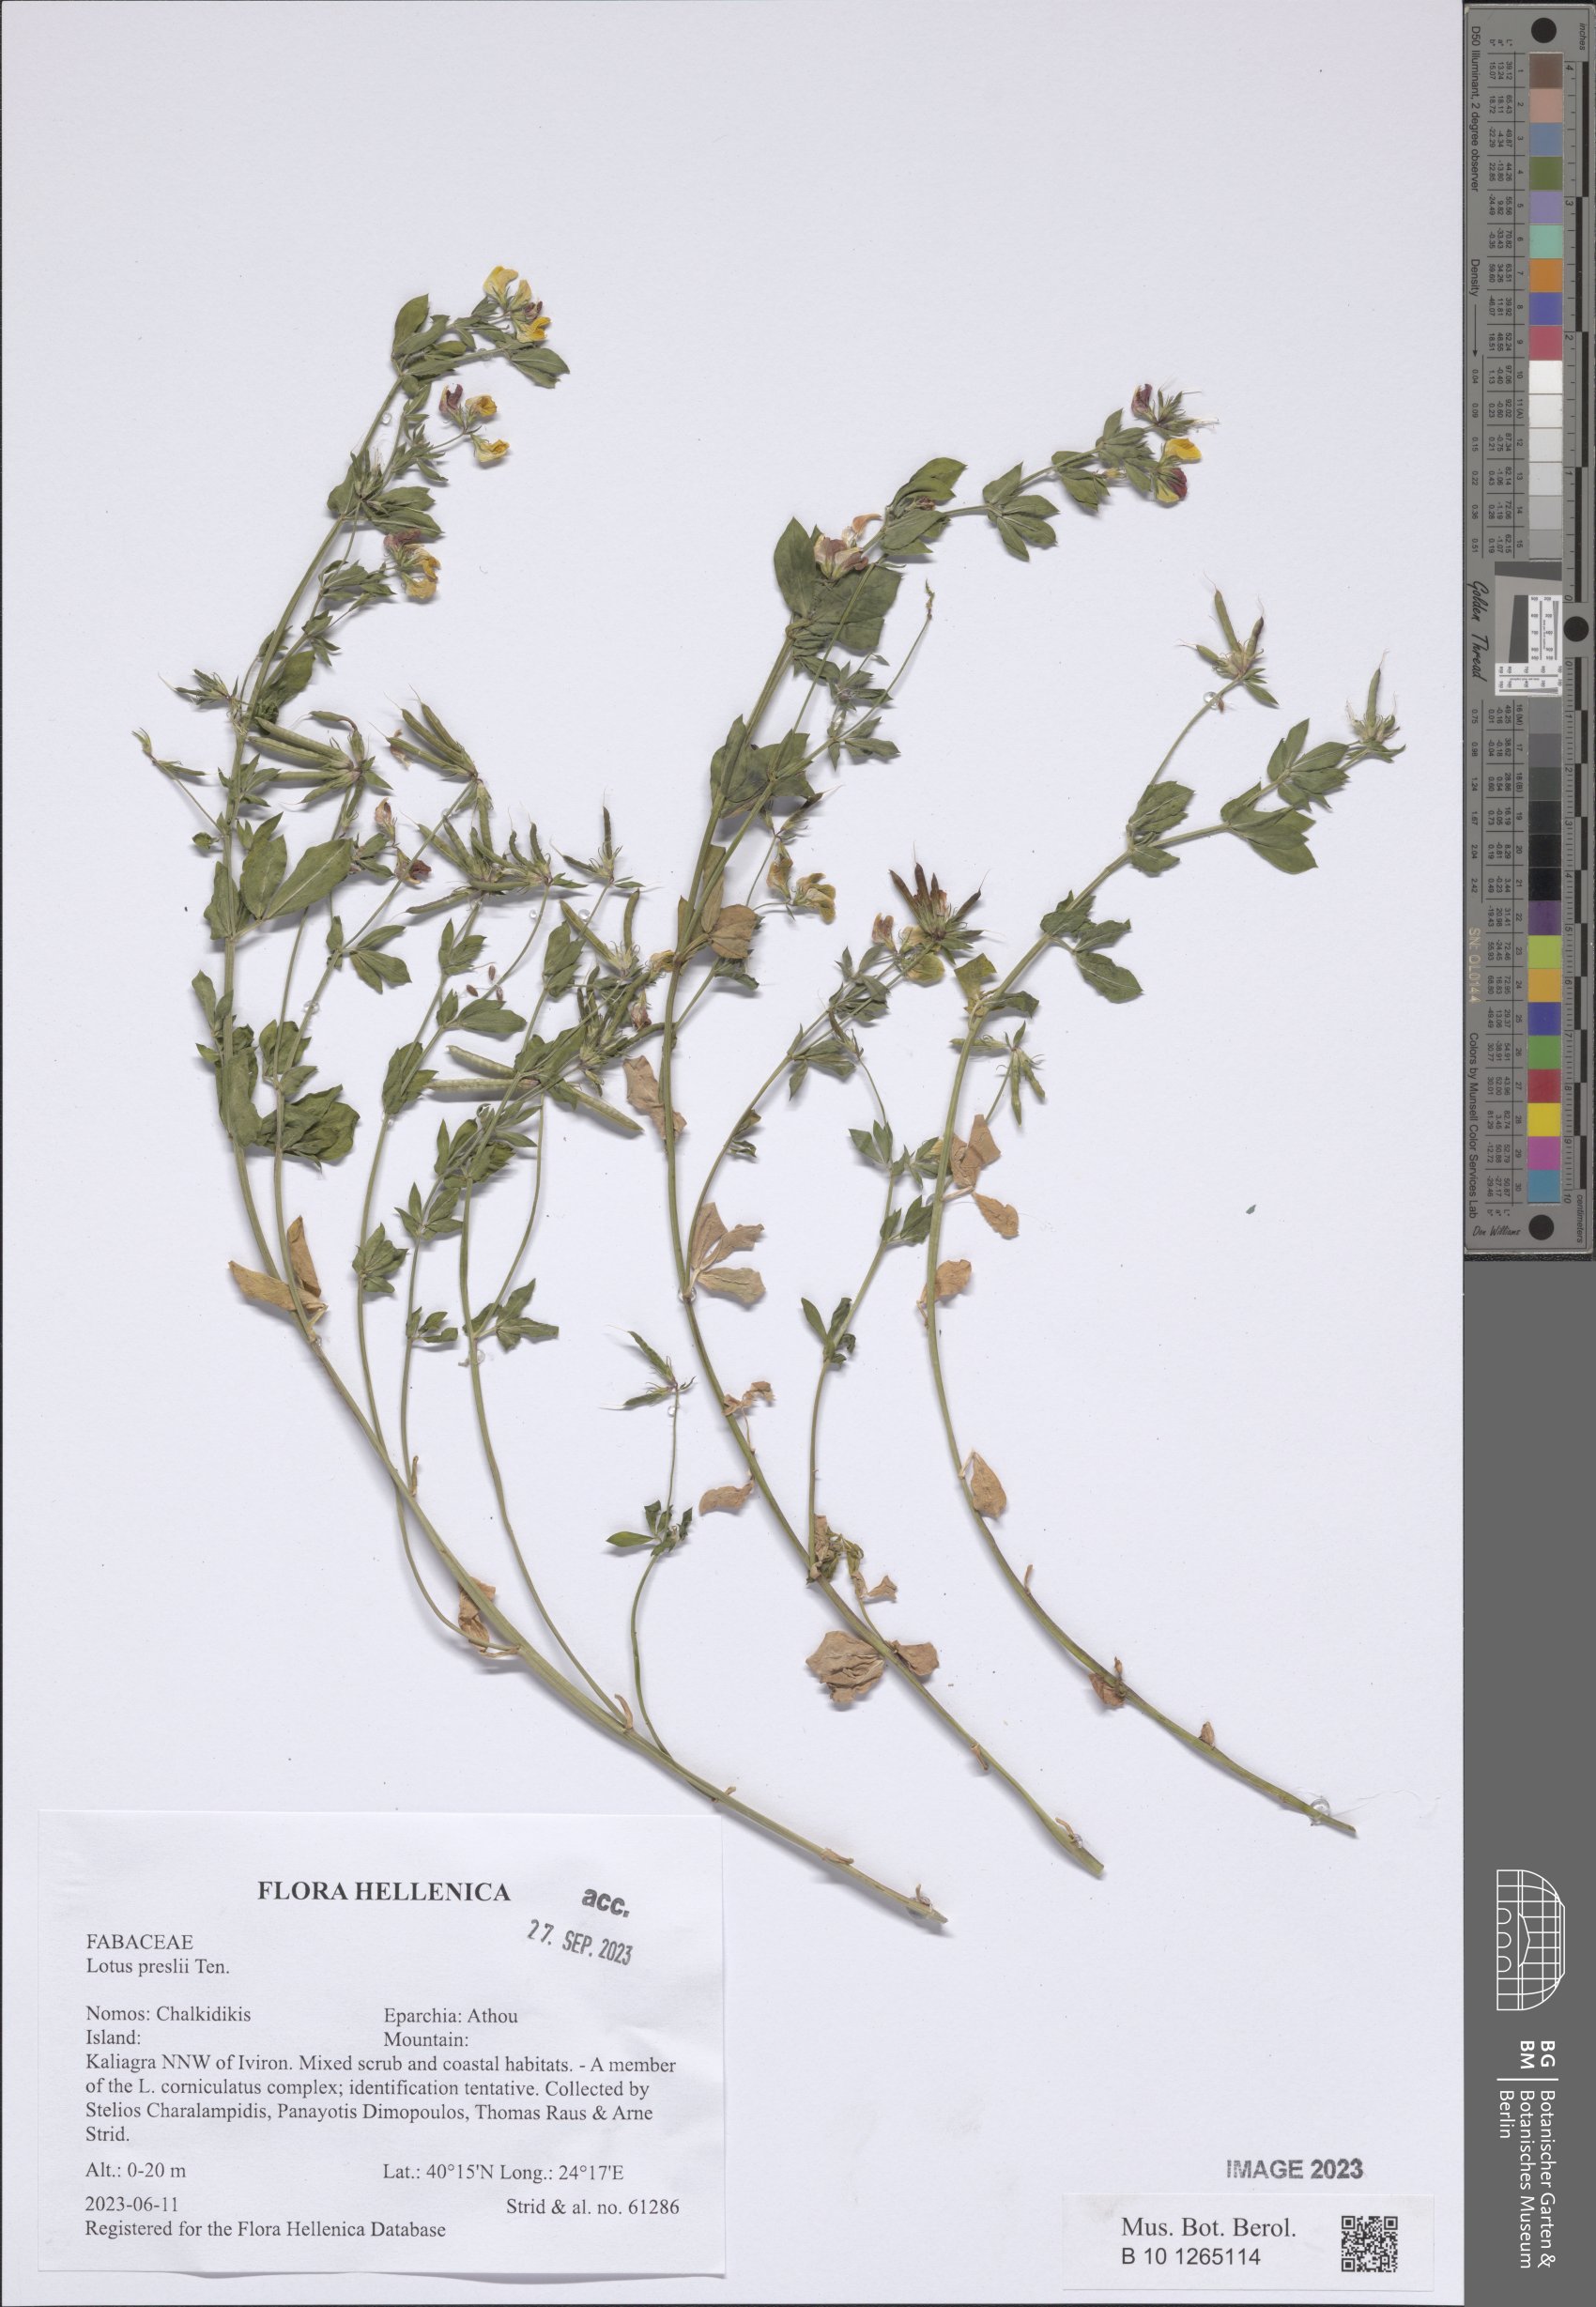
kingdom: Plantae
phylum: Tracheophyta
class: Magnoliopsida
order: Fabales
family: Fabaceae
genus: Lotus
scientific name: Lotus corniculatus
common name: Common bird's-foot-trefoil
